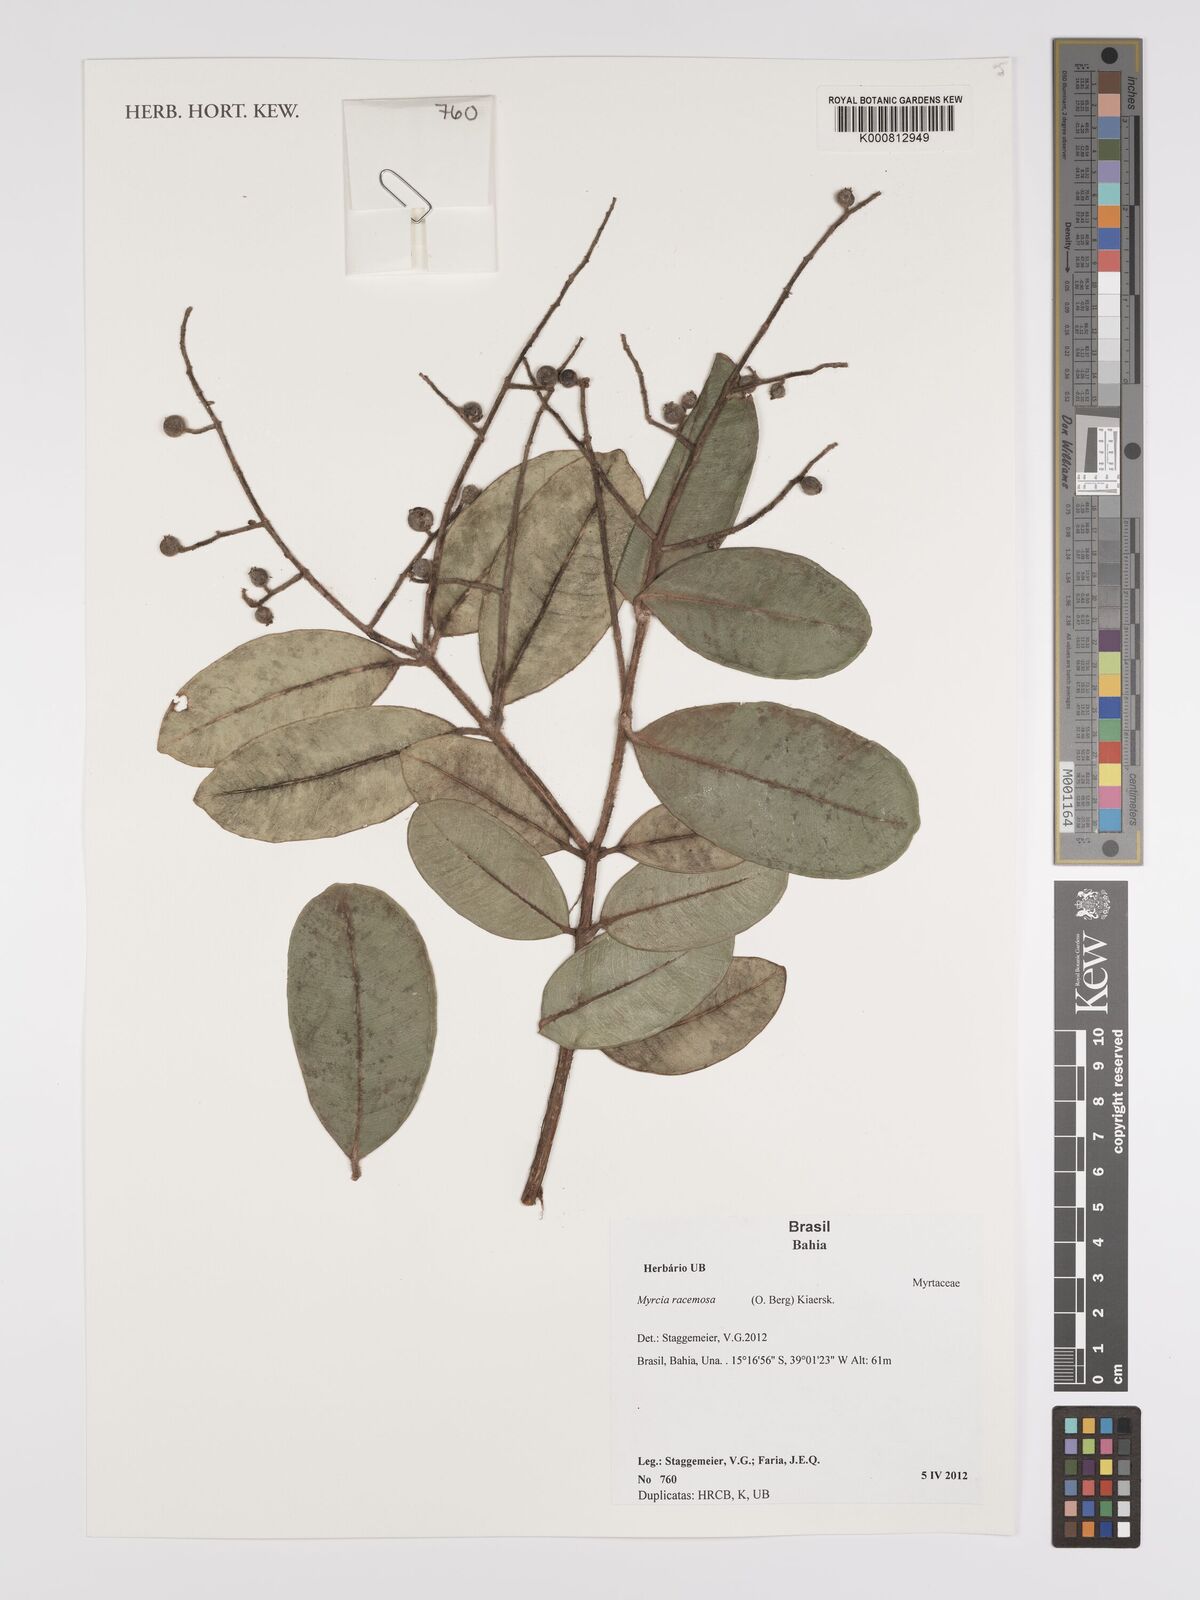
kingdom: Plantae
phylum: Tracheophyta
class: Magnoliopsida
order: Myrtales
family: Myrtaceae
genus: Myrcia
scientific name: Myrcia racemosa
